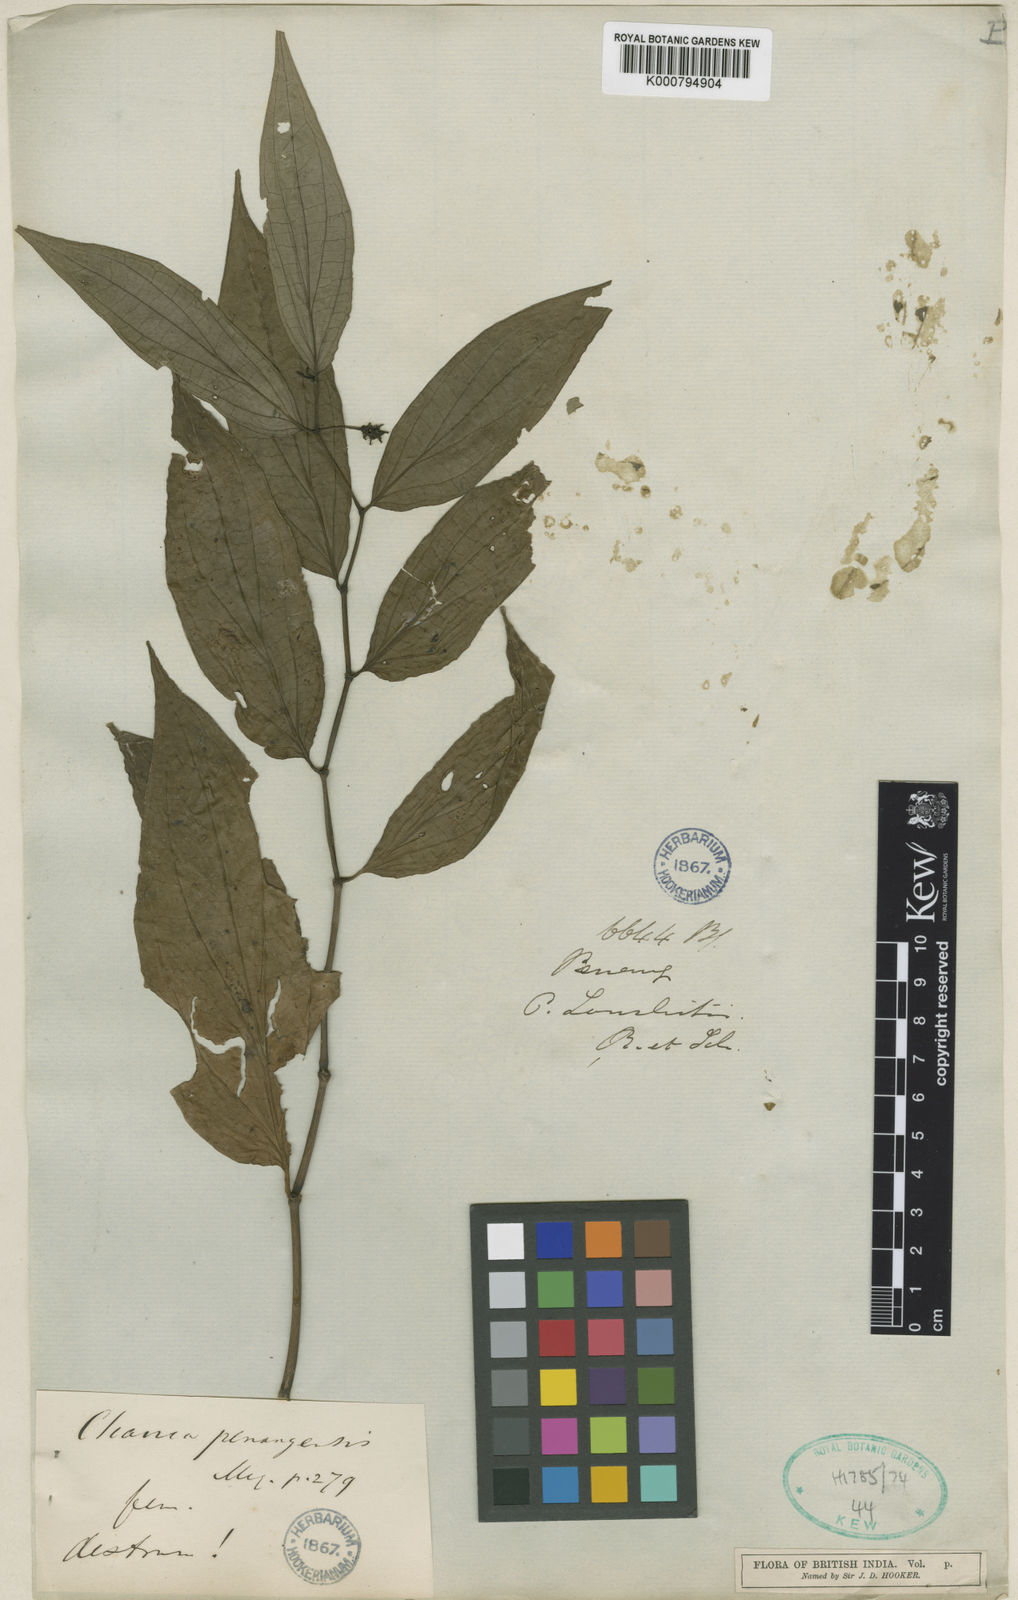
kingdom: Plantae
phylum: Tracheophyta
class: Magnoliopsida
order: Piperales
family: Piperaceae
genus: Piper
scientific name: Piper penangense
